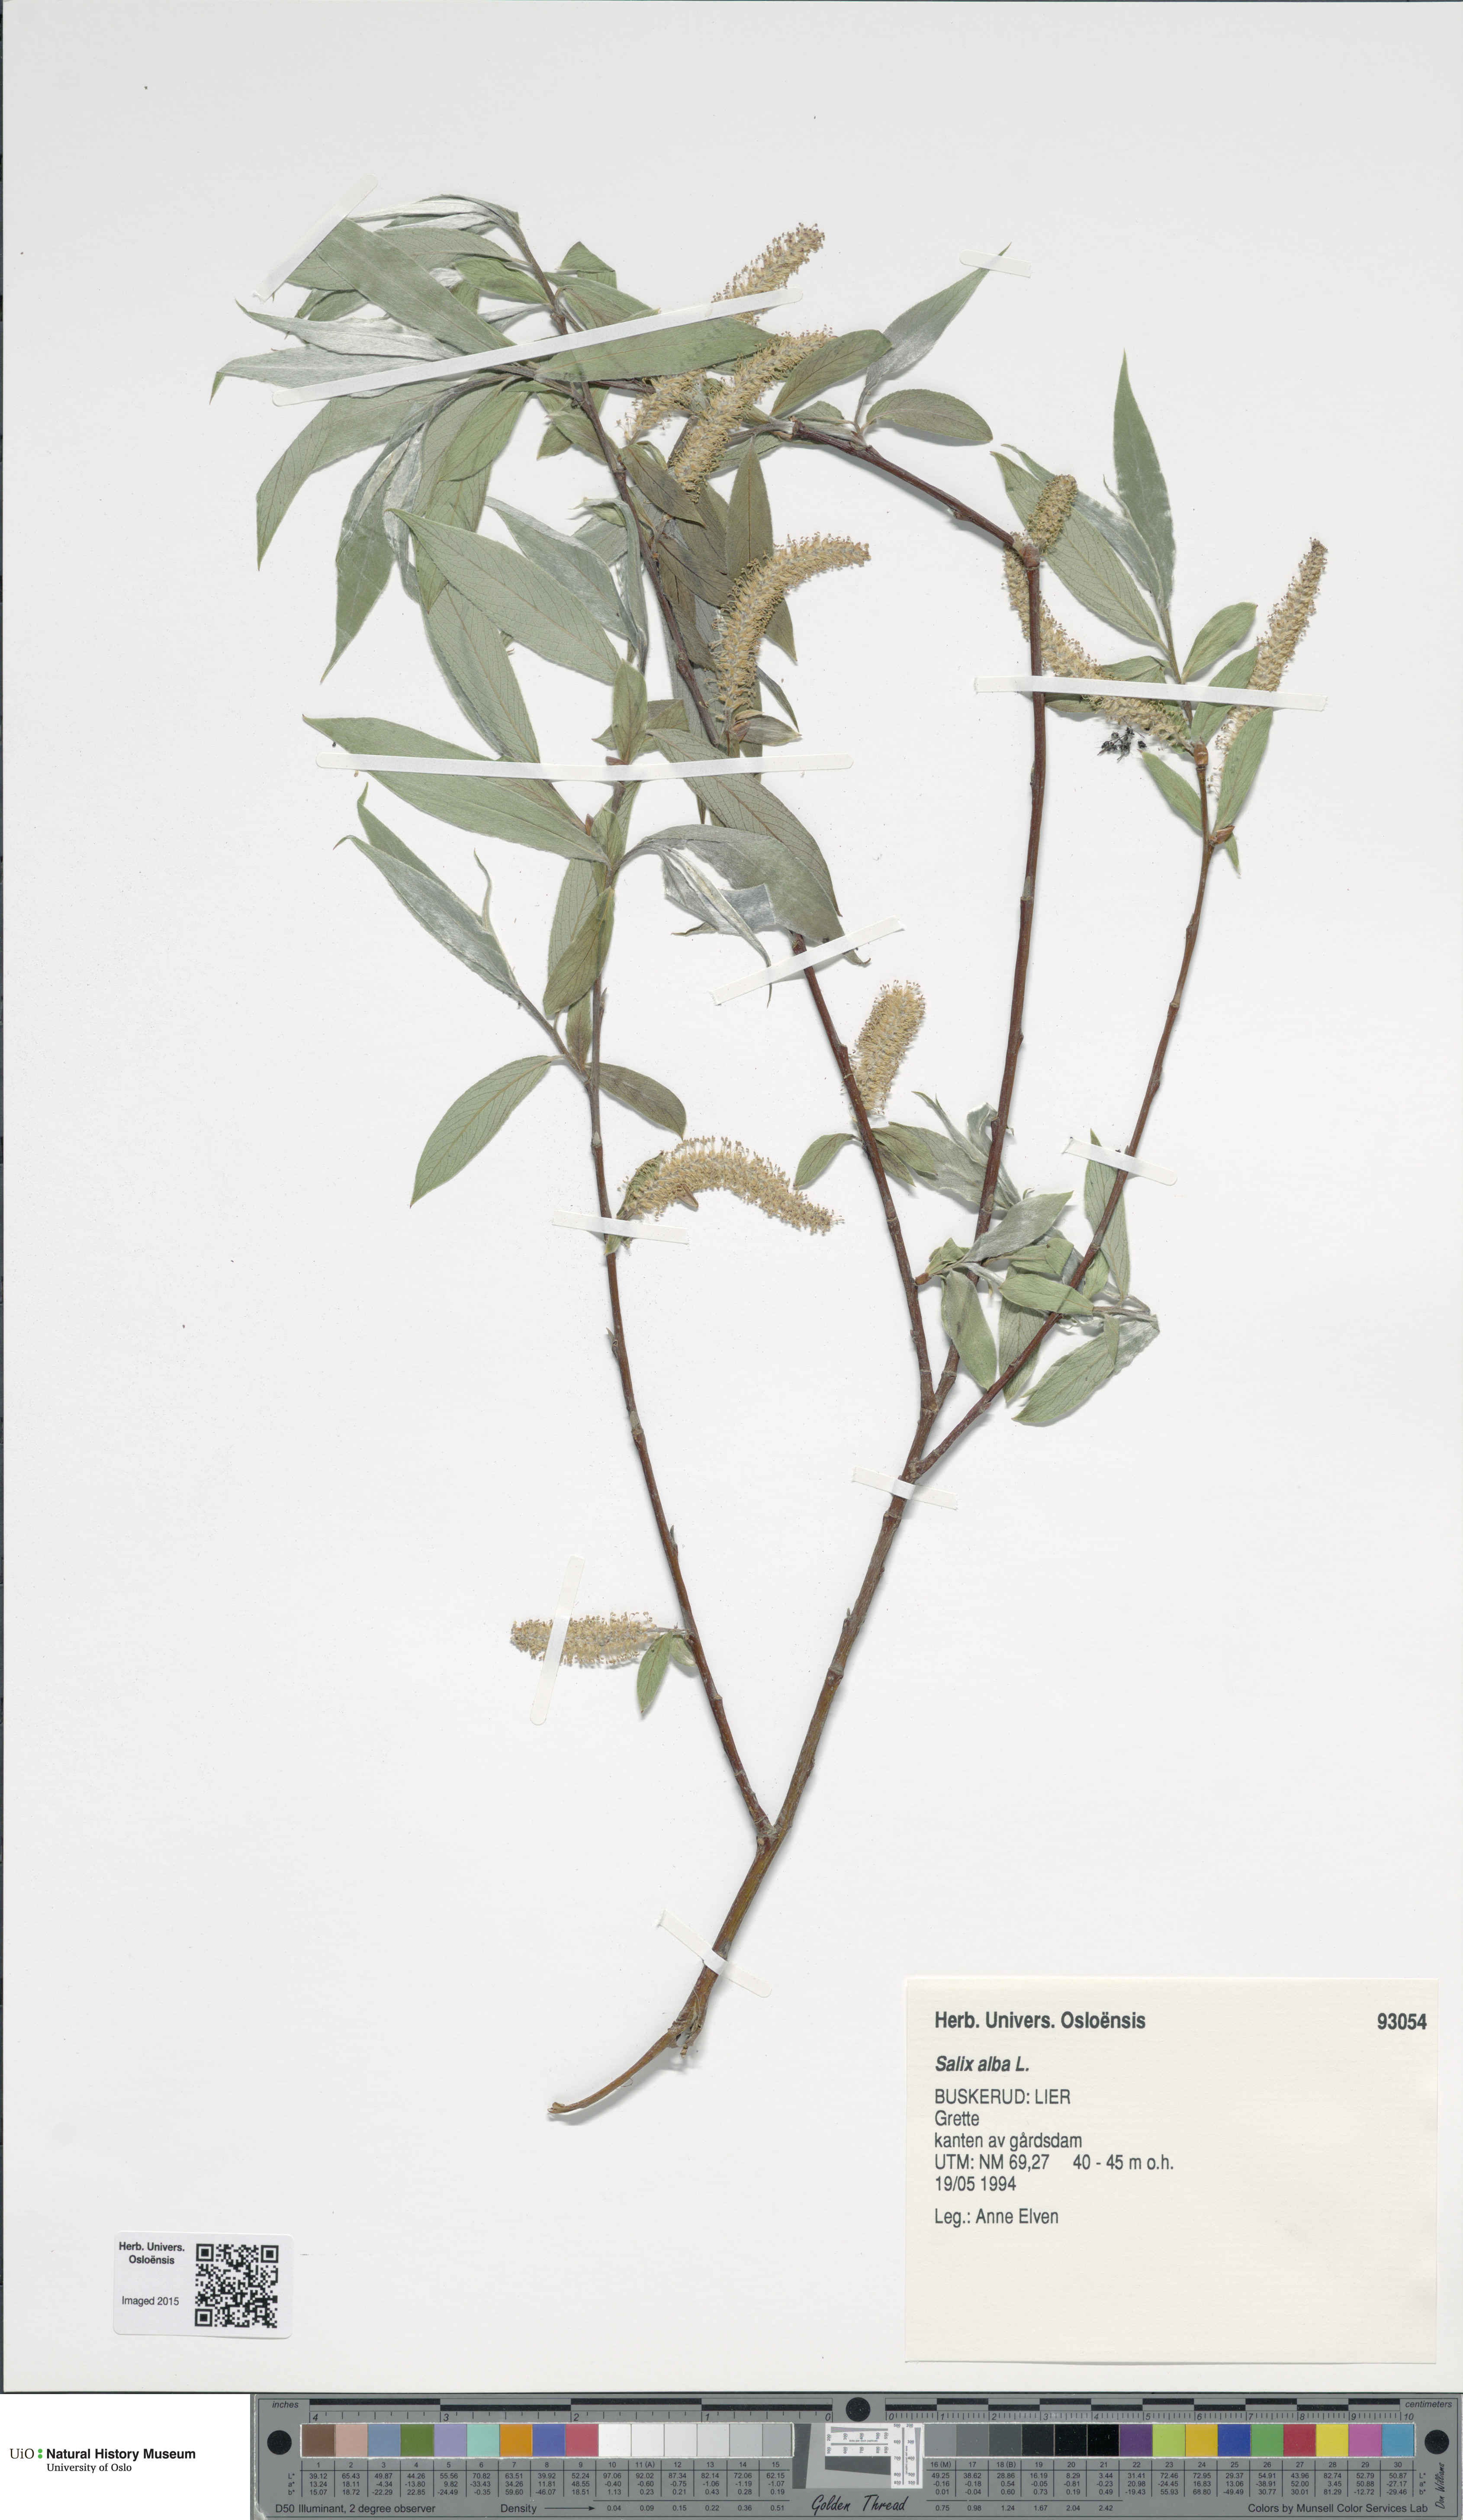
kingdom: Plantae
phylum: Tracheophyta
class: Magnoliopsida
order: Malpighiales
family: Salicaceae
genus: Salix
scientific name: Salix alba
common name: White willow
